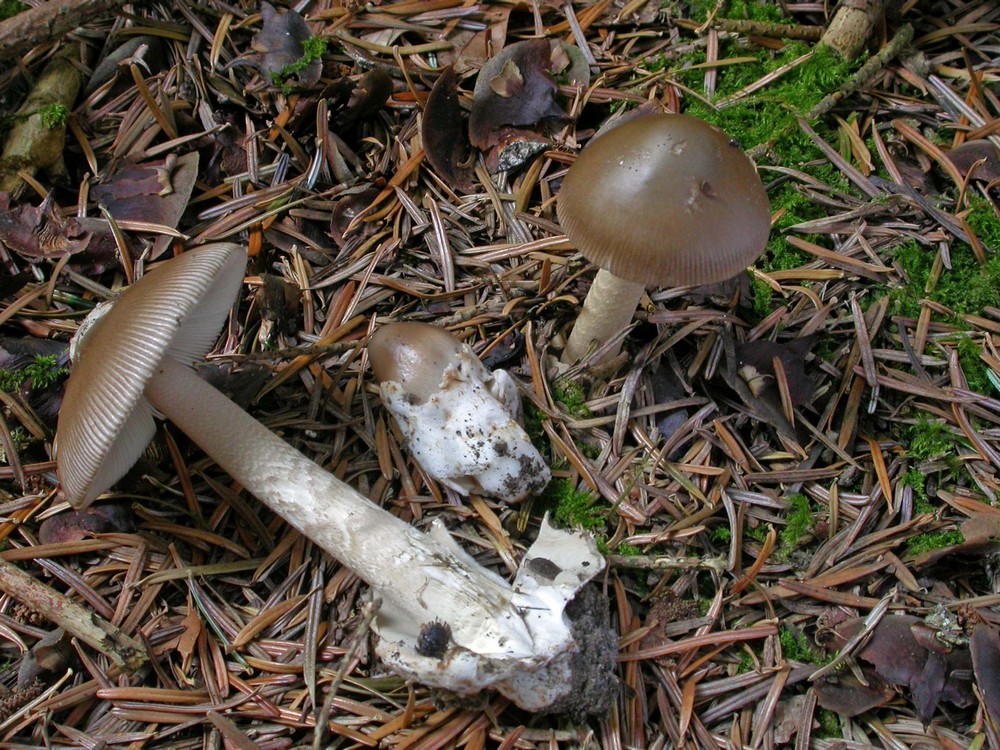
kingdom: Fungi
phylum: Basidiomycota
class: Agaricomycetes
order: Agaricales
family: Amanitaceae
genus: Amanita
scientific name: Amanita submembranacea
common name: gråspættet kam-fluesvamp
